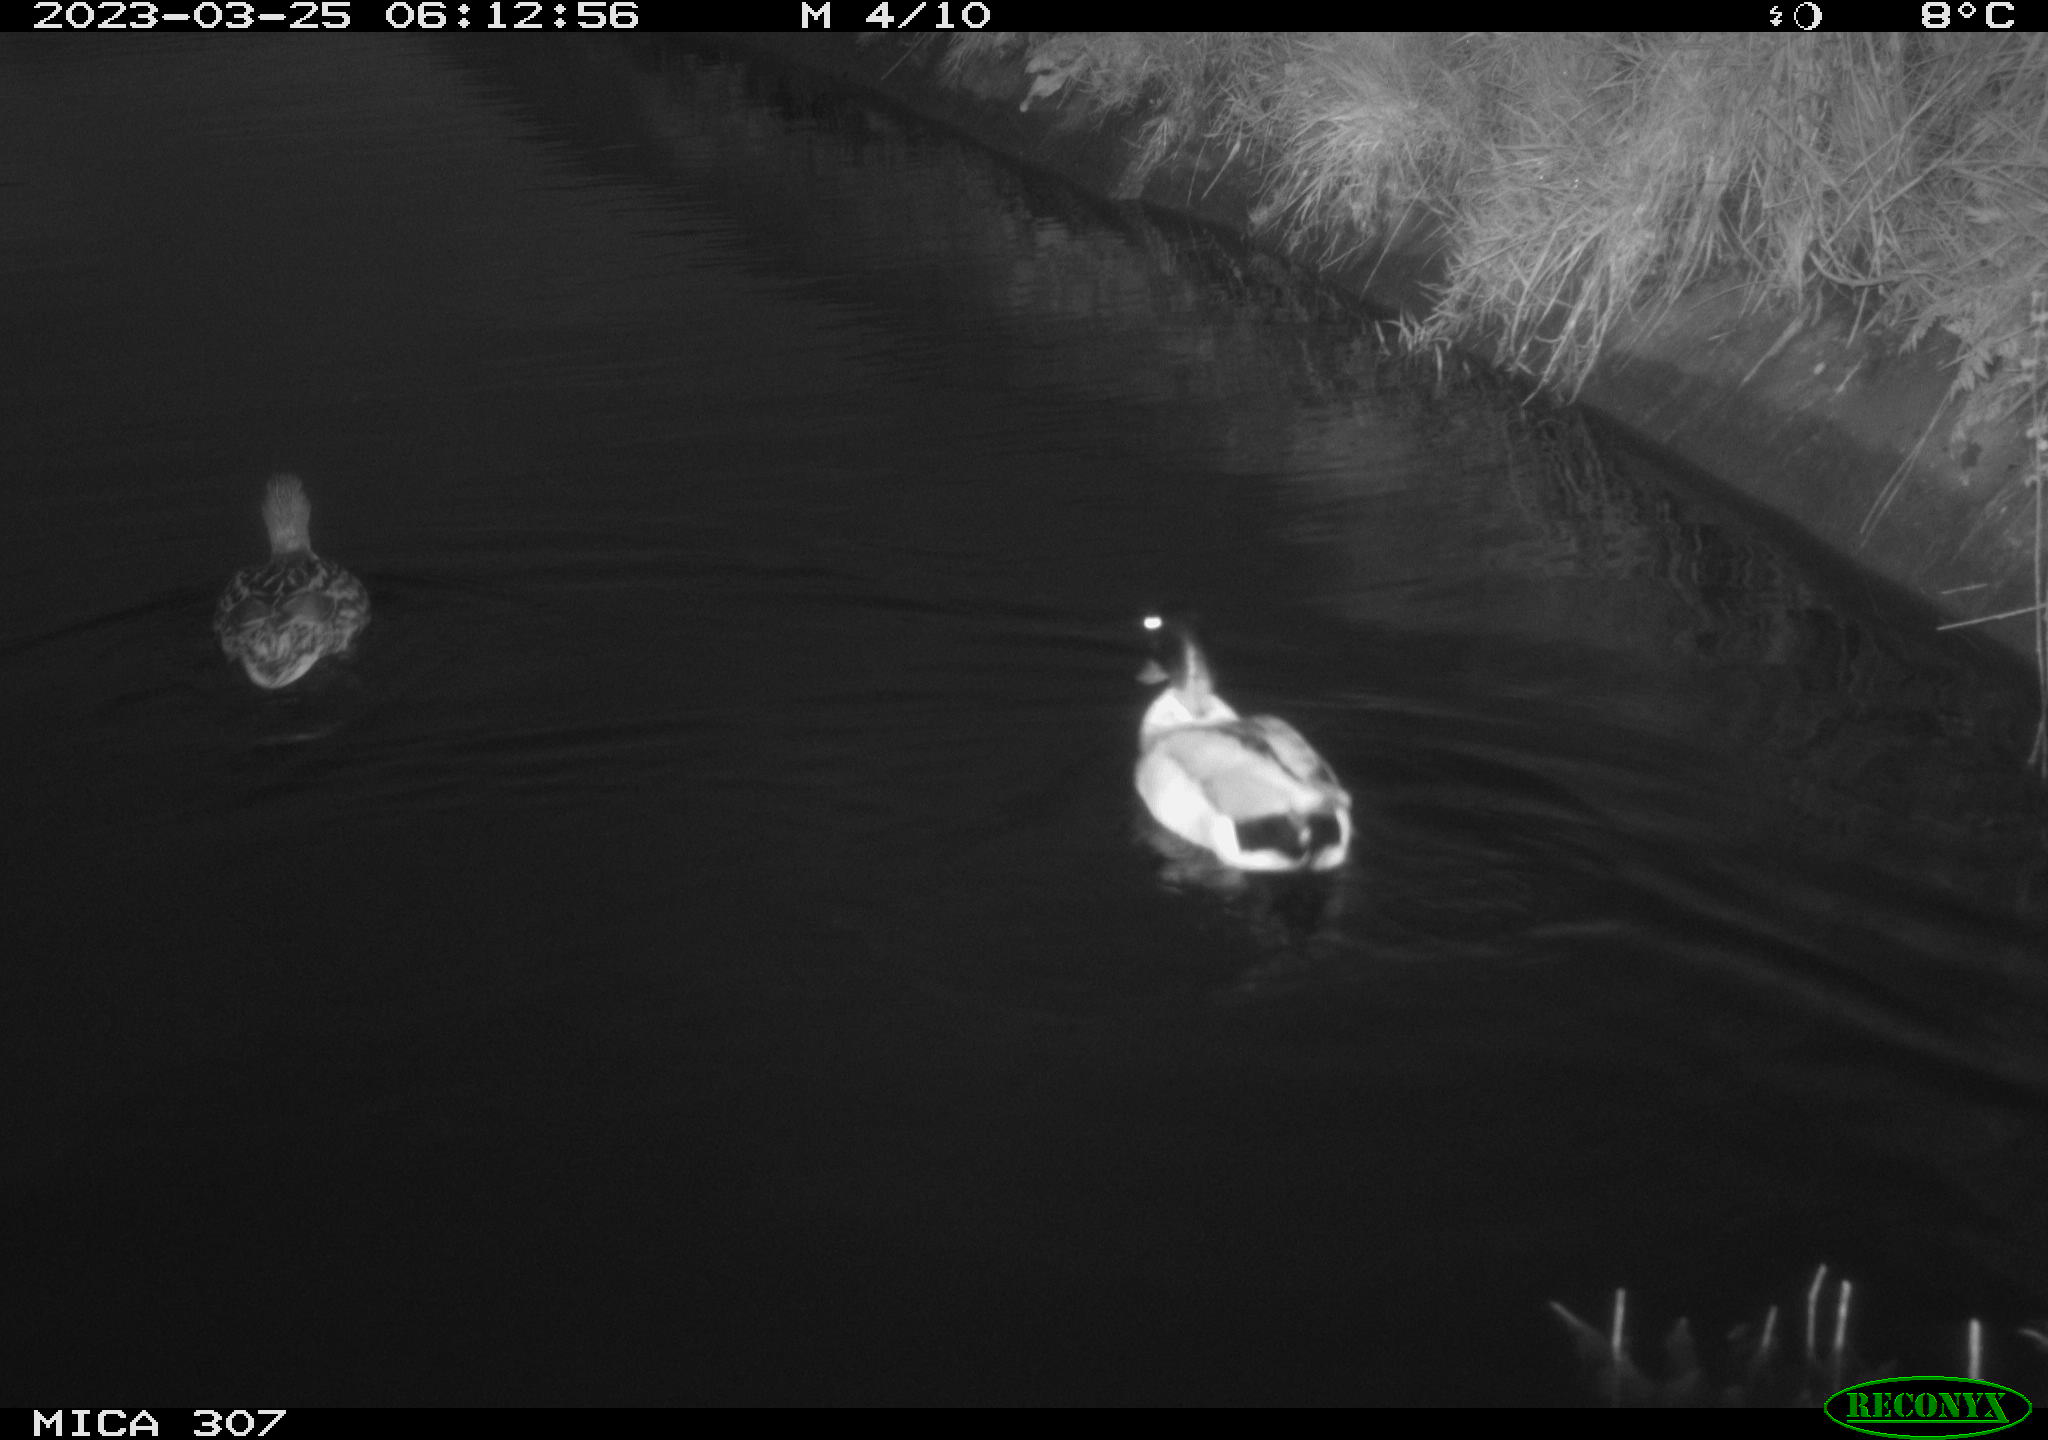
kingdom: Animalia
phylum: Chordata
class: Aves
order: Anseriformes
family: Anatidae
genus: Anas
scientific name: Anas
